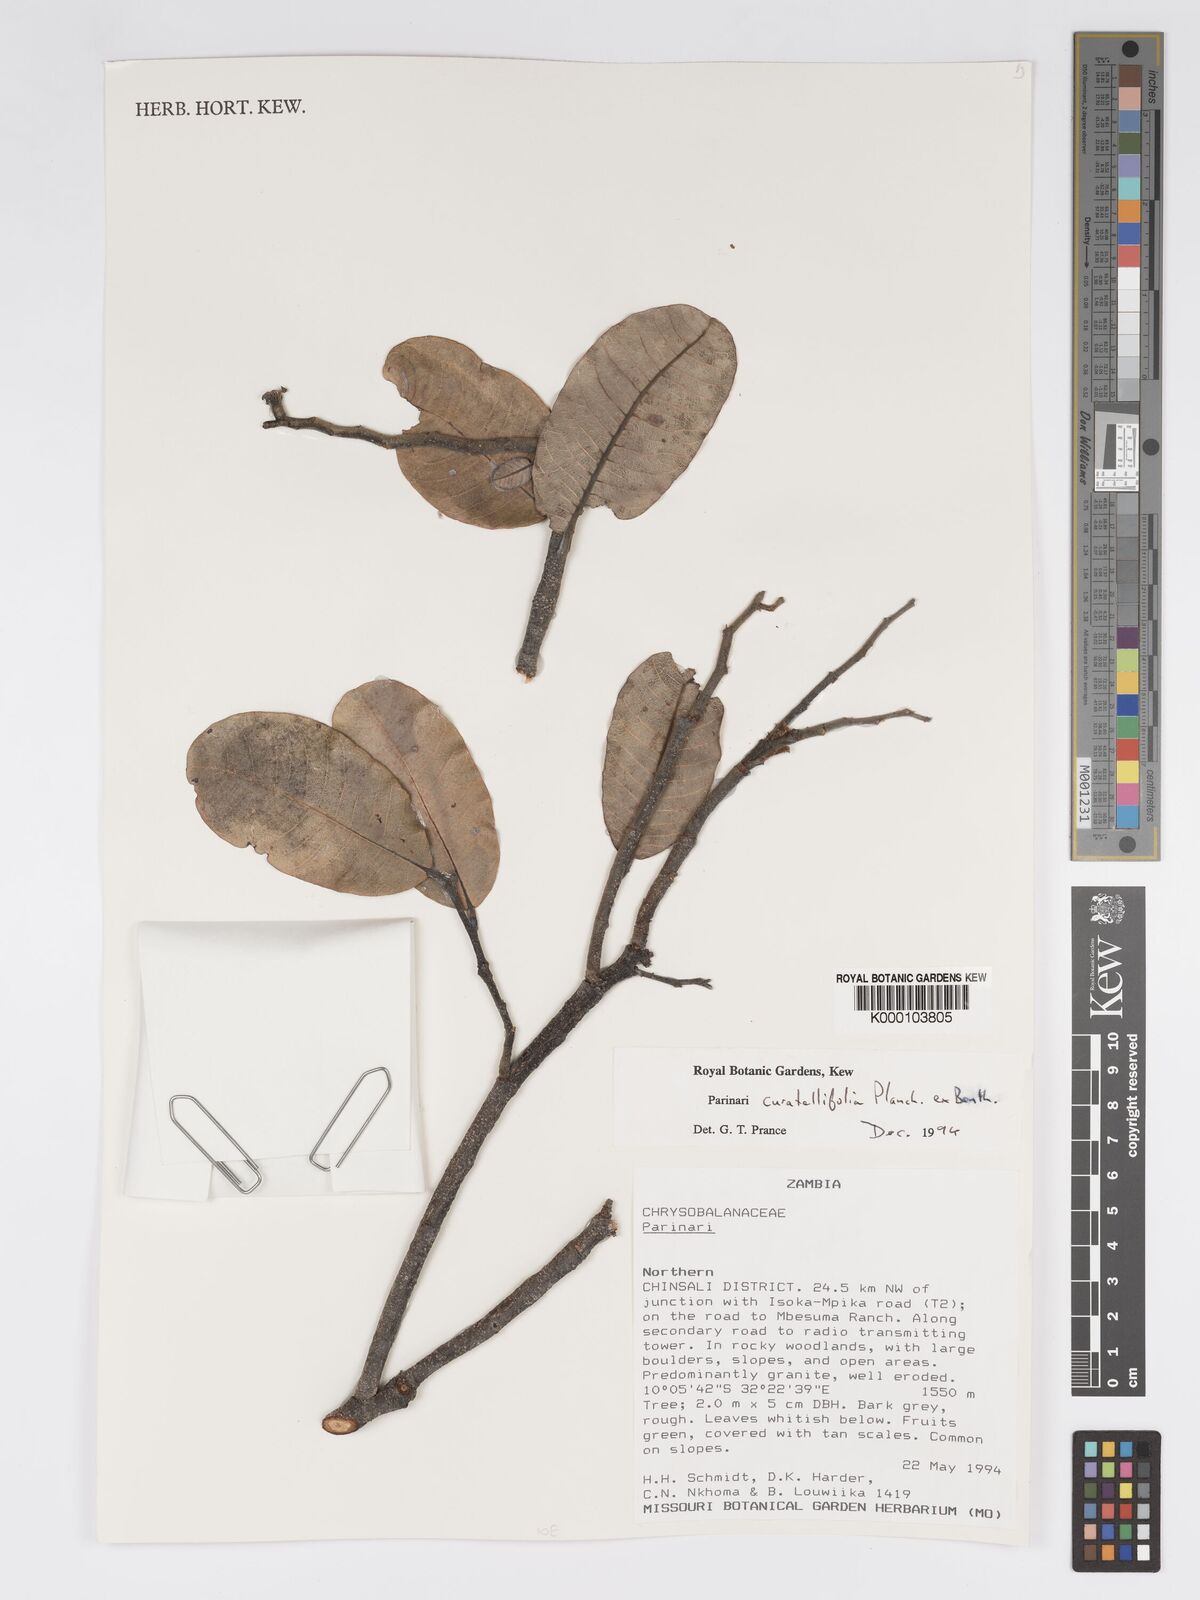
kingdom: Plantae
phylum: Tracheophyta
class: Magnoliopsida
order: Malpighiales
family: Chrysobalanaceae
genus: Parinari
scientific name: Parinari curatellifolia
